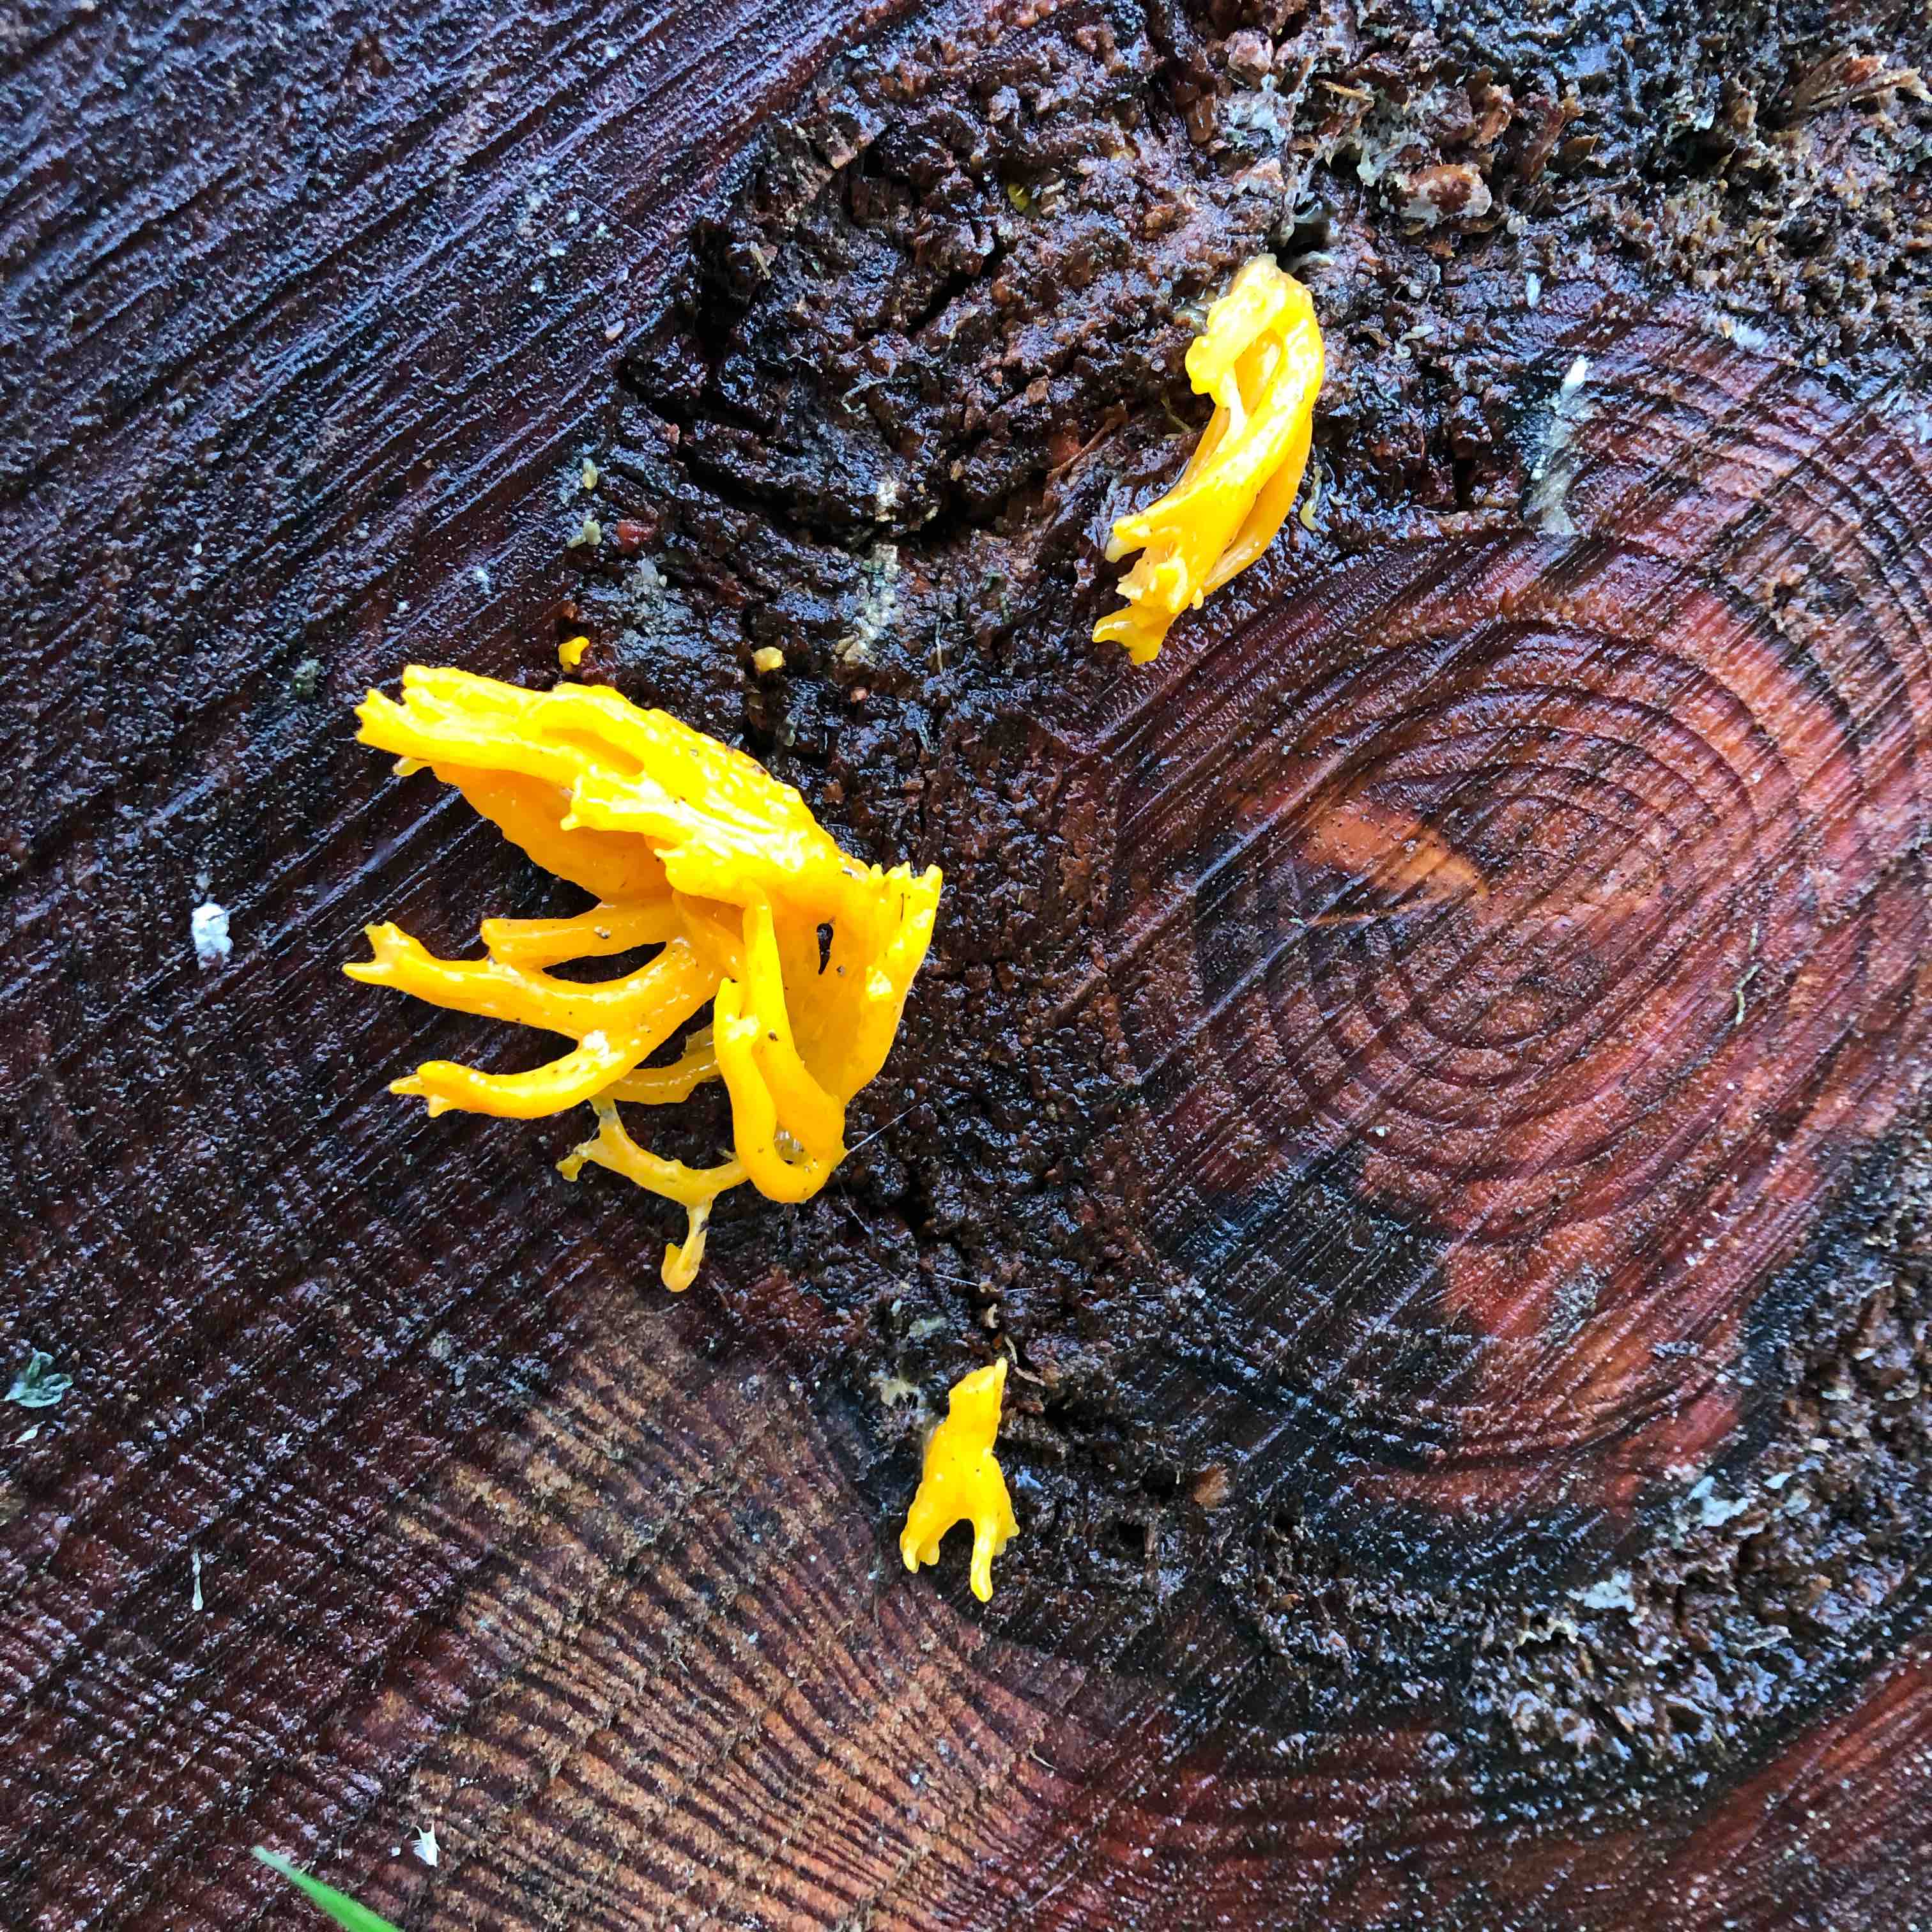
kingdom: Fungi
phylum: Basidiomycota
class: Dacrymycetes
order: Dacrymycetales
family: Dacrymycetaceae
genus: Calocera
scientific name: Calocera viscosa
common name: almindelig guldgaffel
